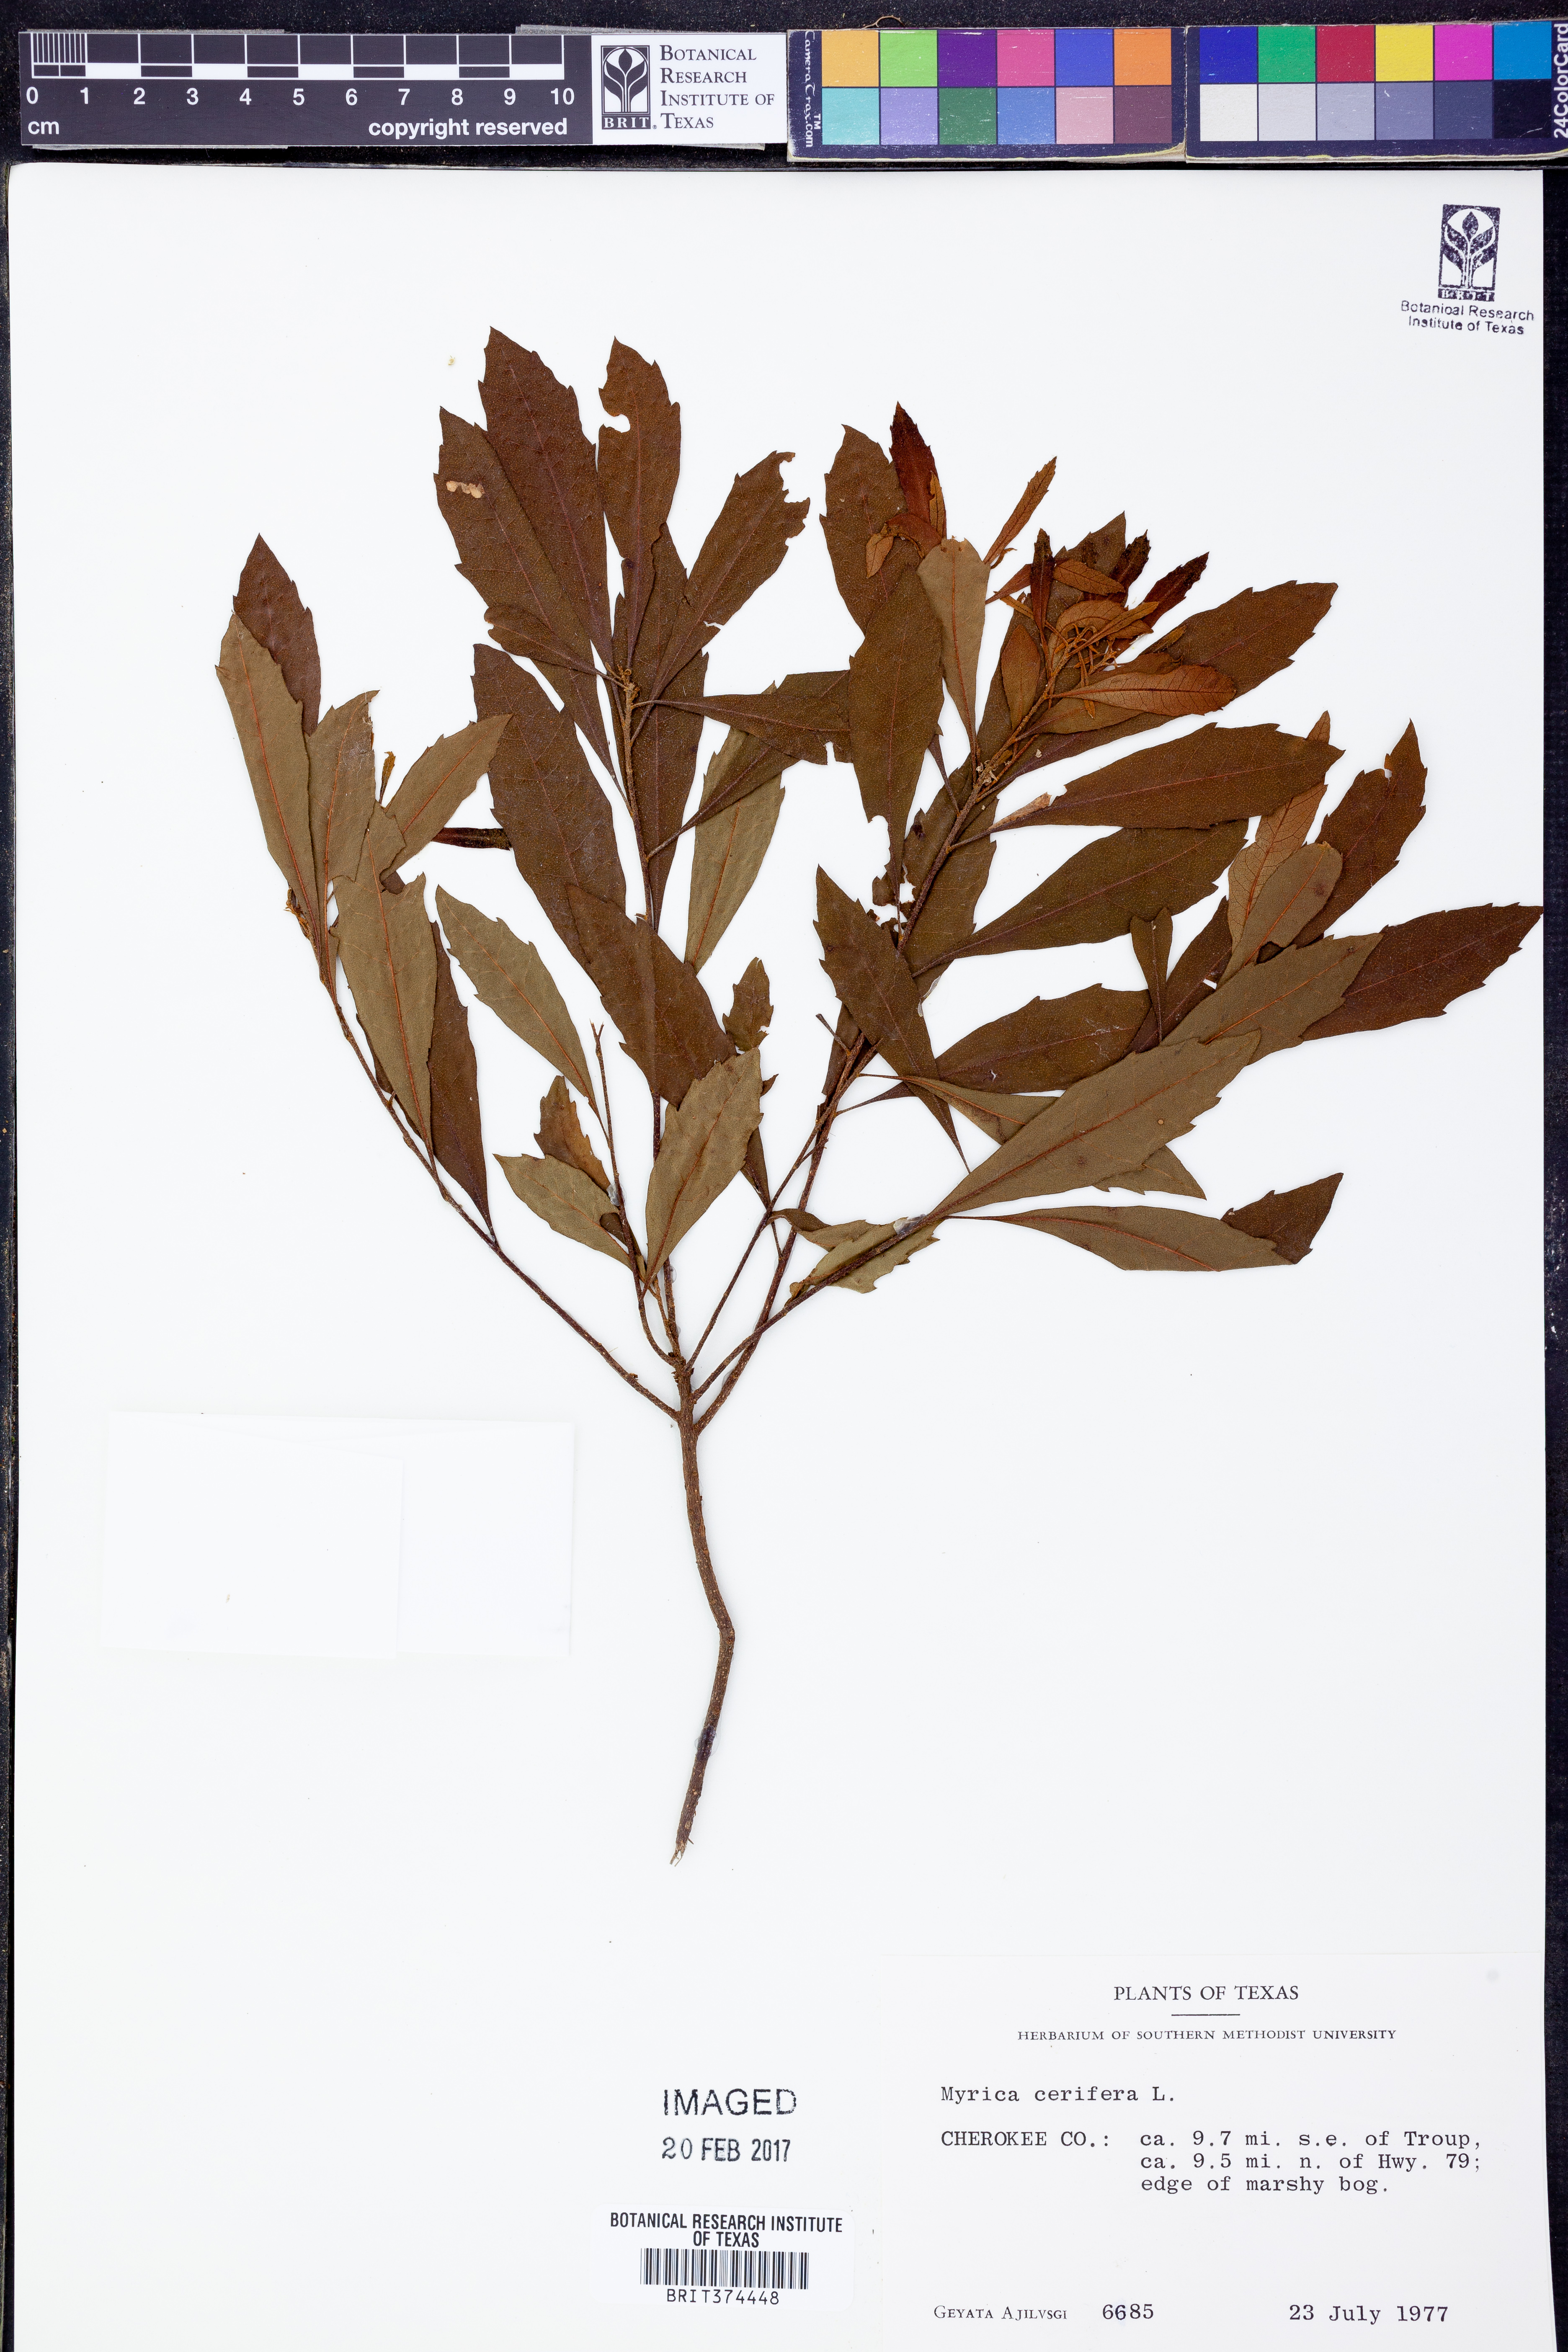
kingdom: Plantae
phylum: Tracheophyta
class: Magnoliopsida
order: Fagales
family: Myricaceae
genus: Morella
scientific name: Morella cerifera
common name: Wax myrtle
